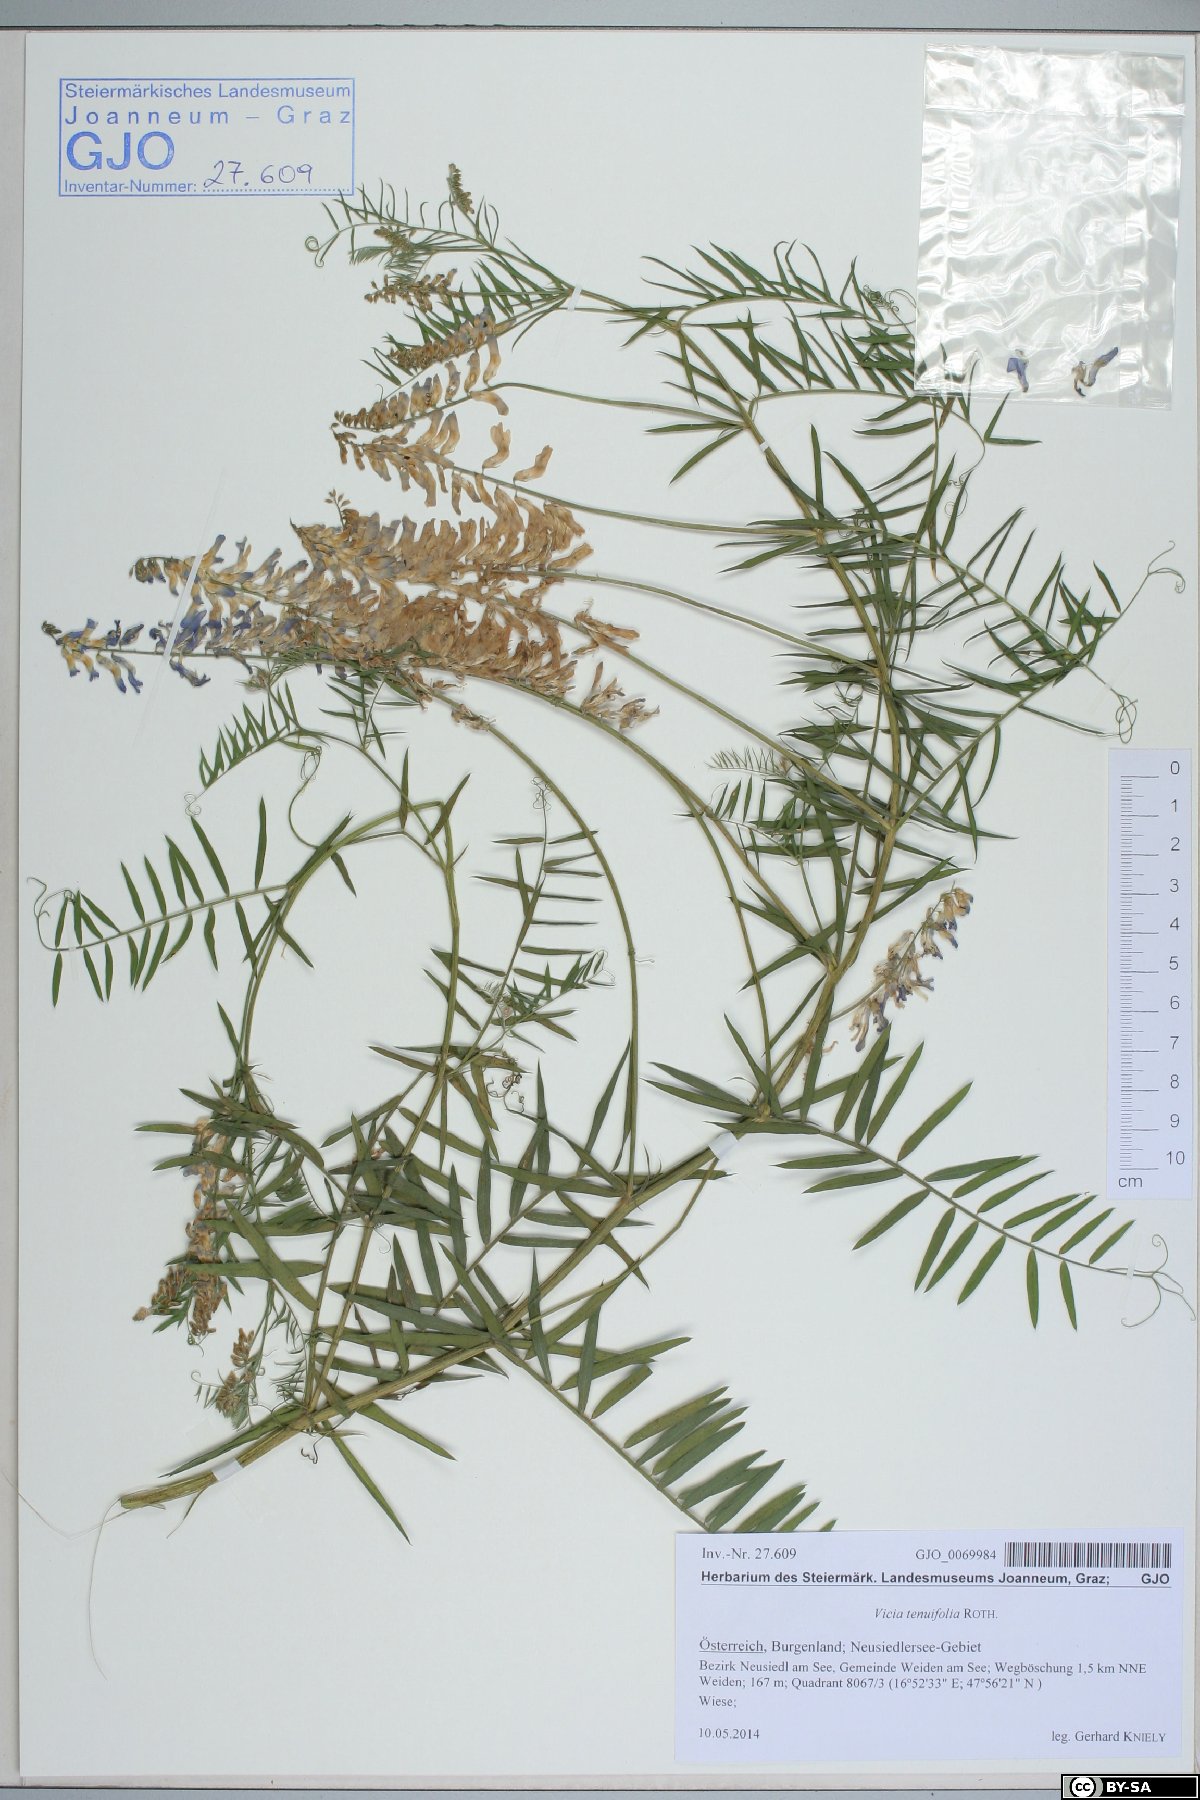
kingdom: Plantae
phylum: Tracheophyta
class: Magnoliopsida
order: Fabales
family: Fabaceae
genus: Vicia
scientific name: Vicia tenuifolia
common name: Fine-leaved vetch
